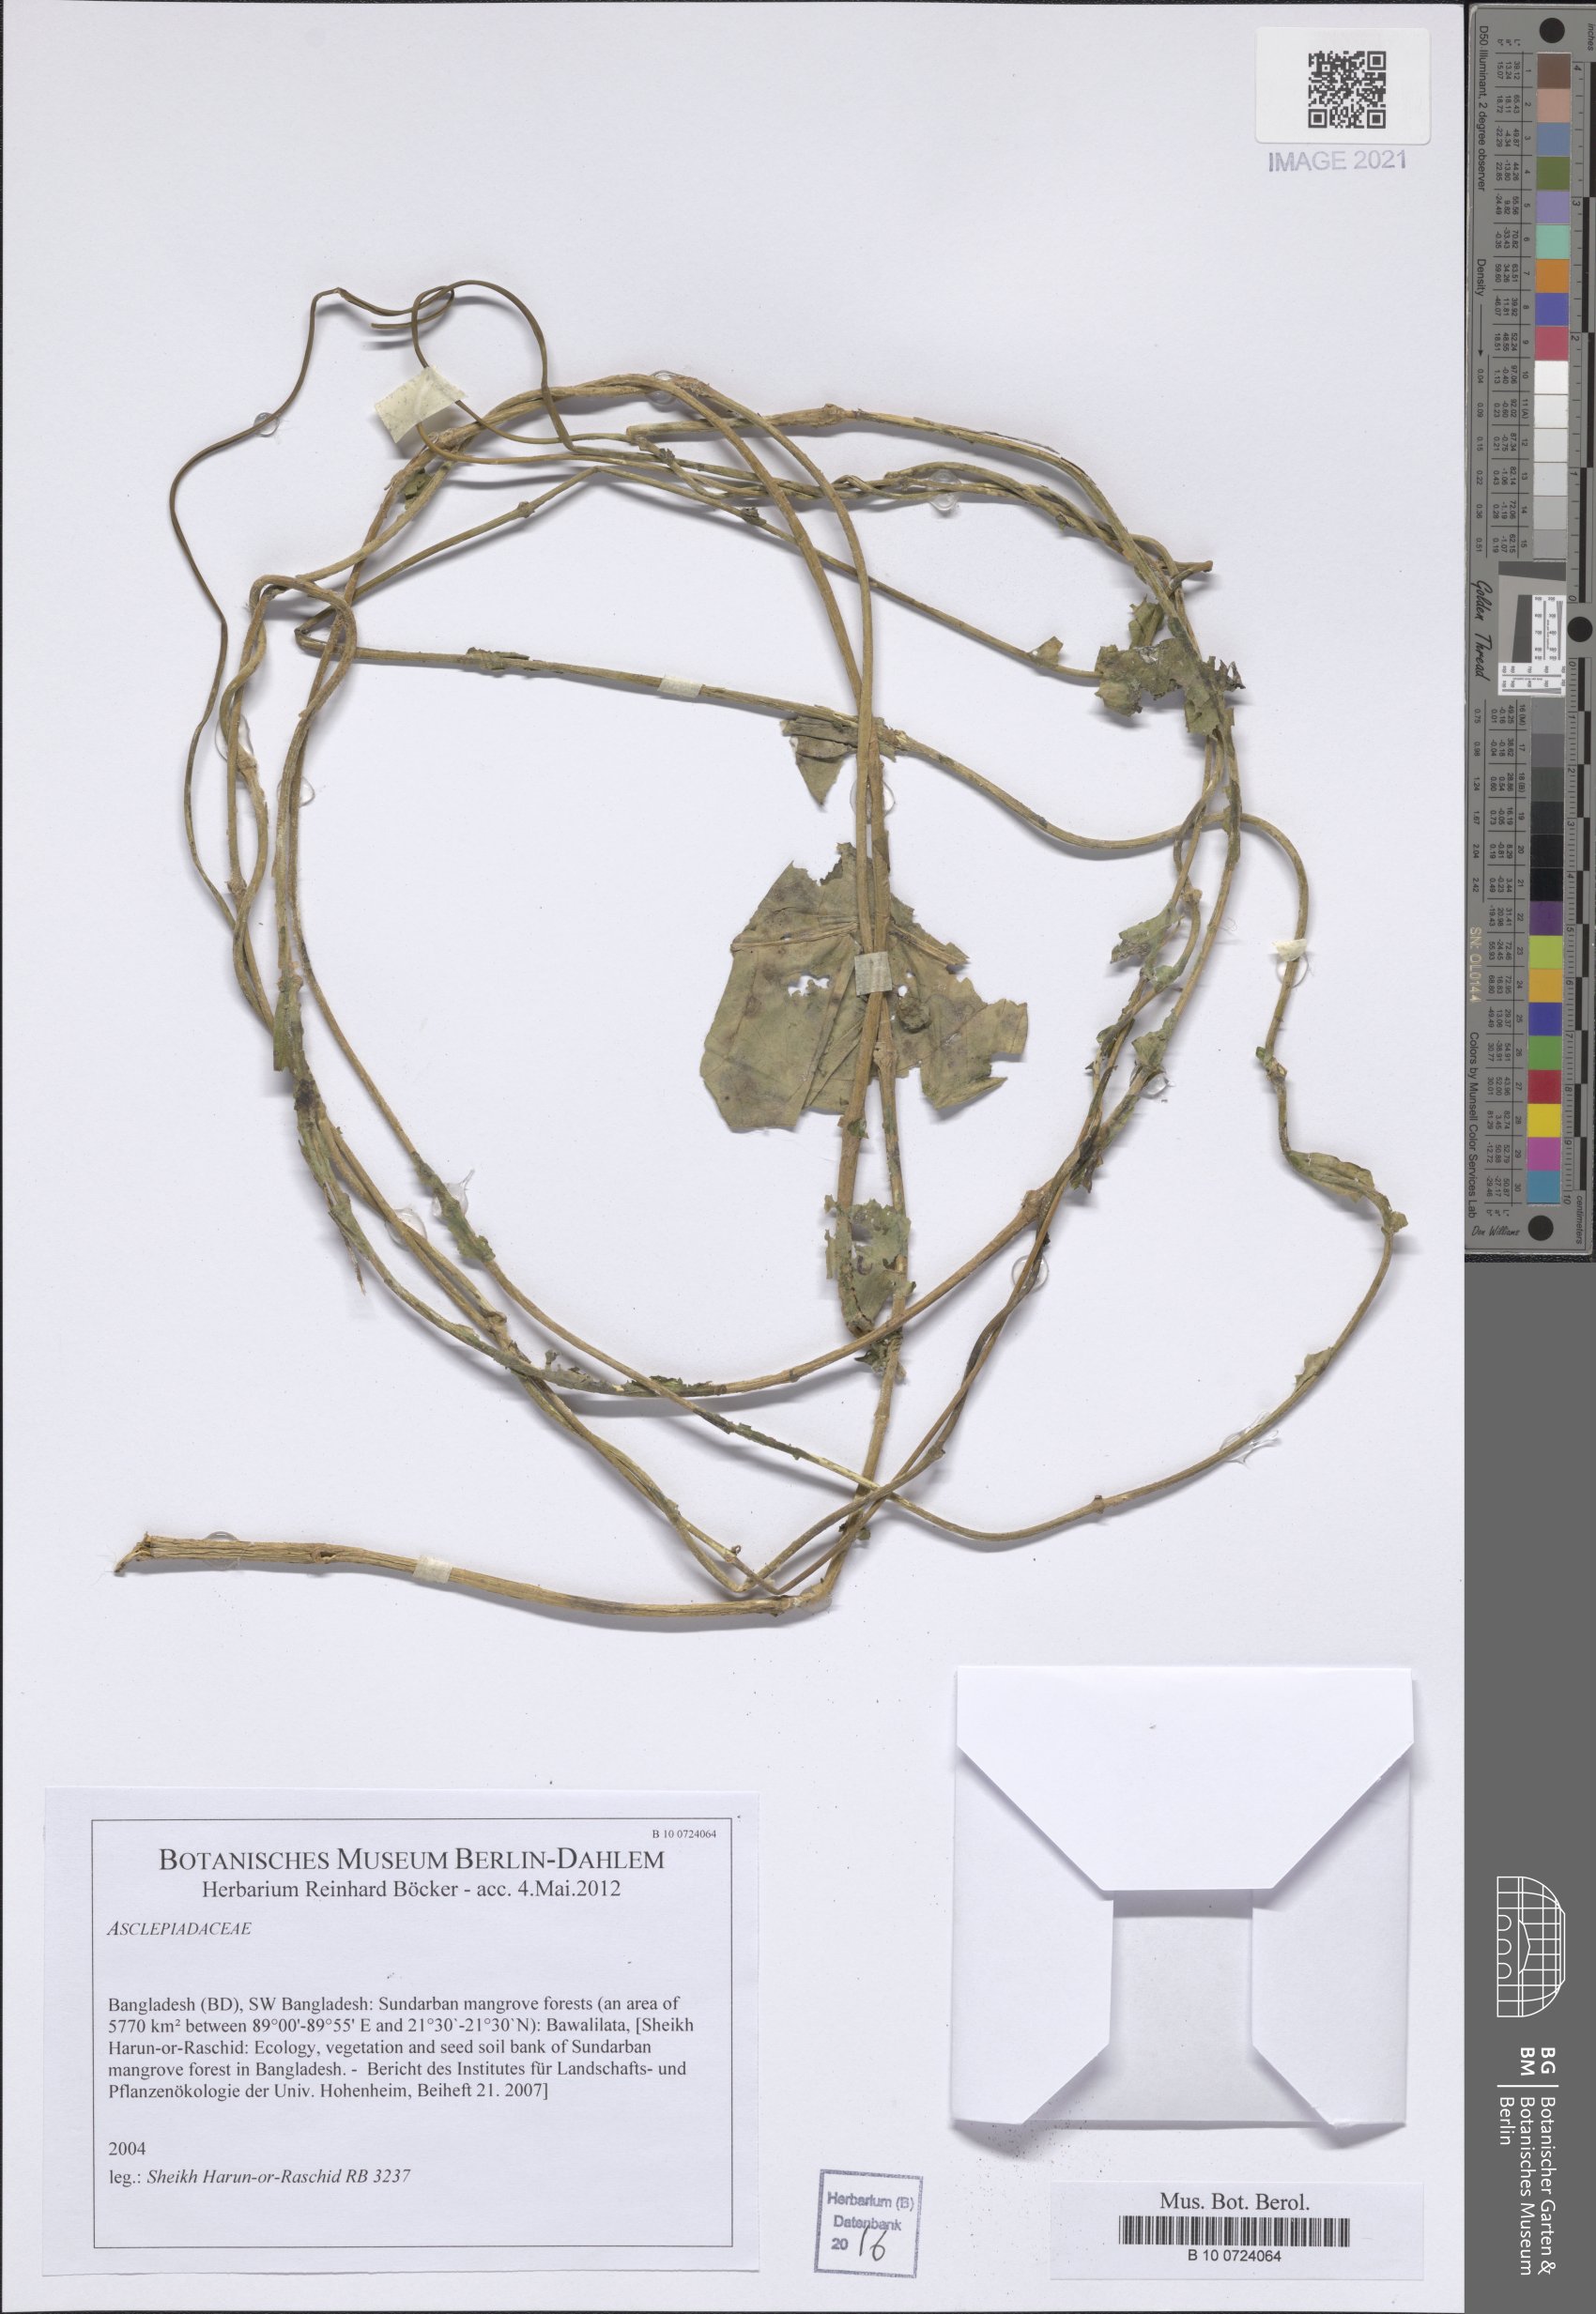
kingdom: Plantae
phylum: Tracheophyta
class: Magnoliopsida
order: Gentianales
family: Apocynaceae
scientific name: Apocynaceae
